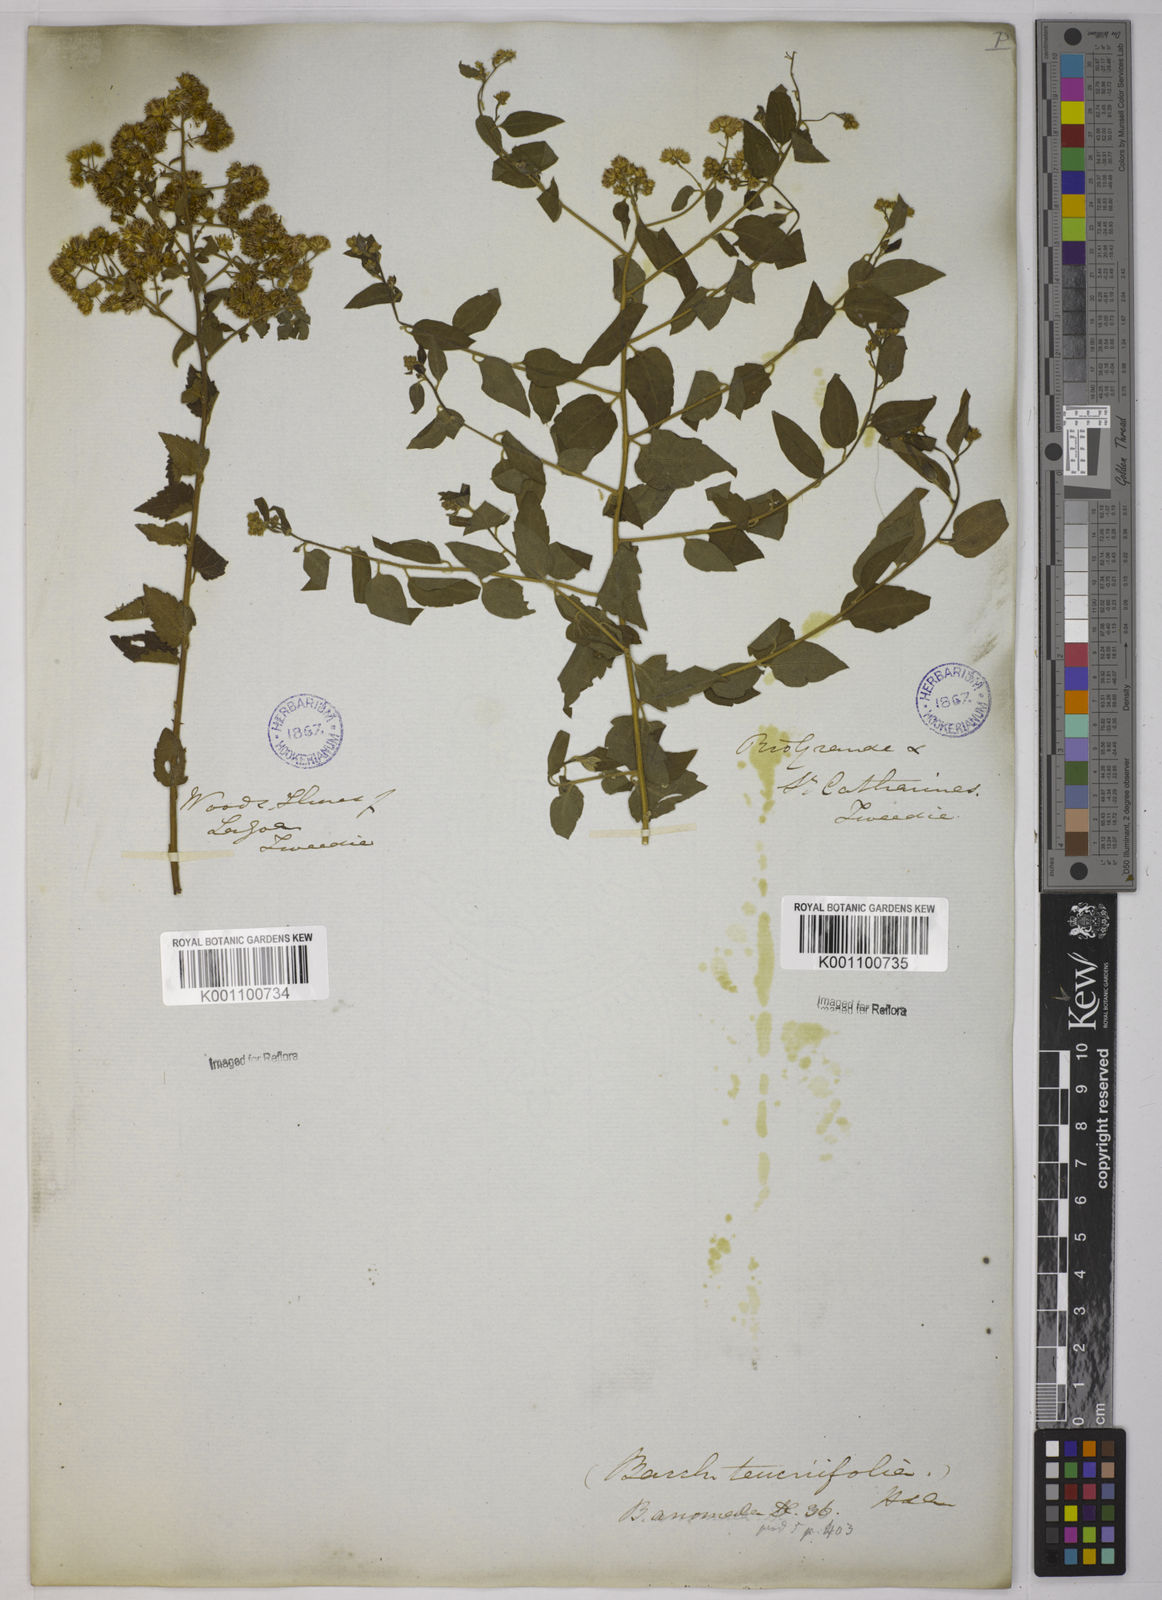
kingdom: Plantae
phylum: Tracheophyta
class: Magnoliopsida
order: Asterales
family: Asteraceae
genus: Baccharis
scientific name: Baccharis anomala
